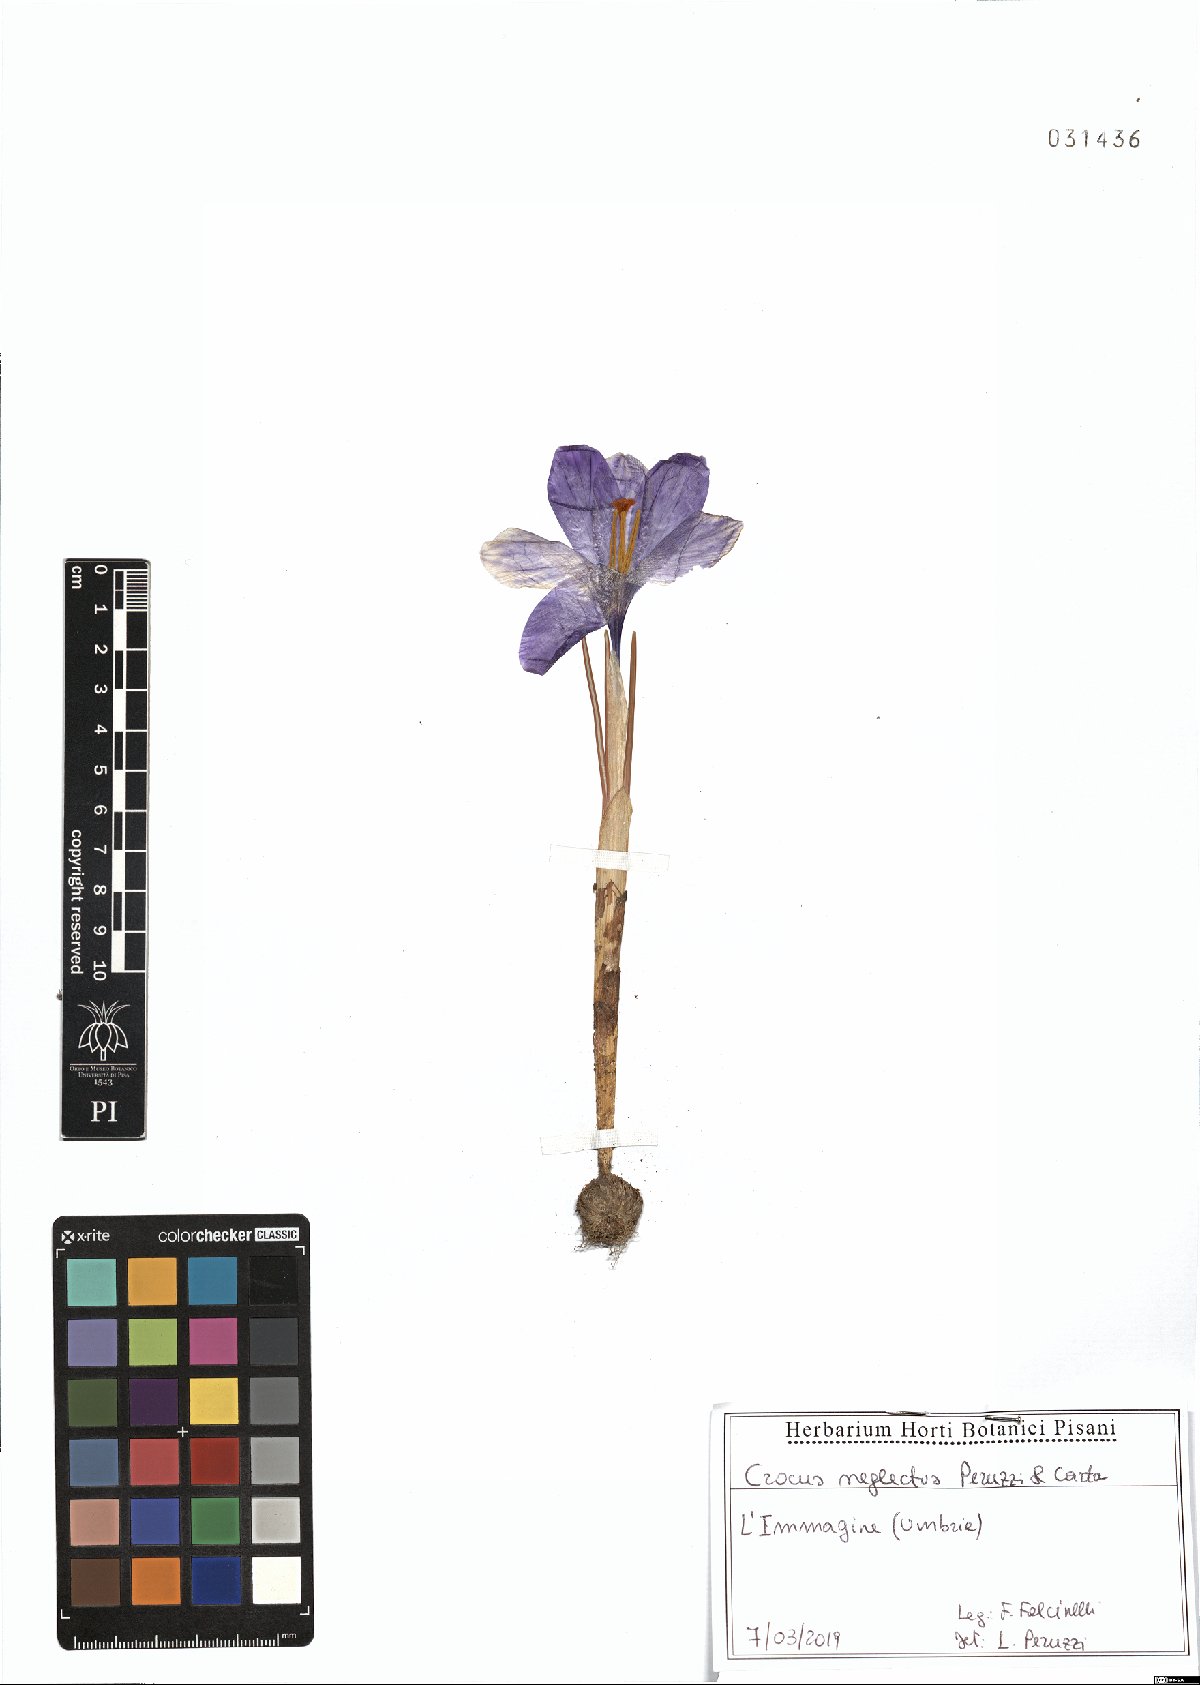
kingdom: Plantae
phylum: Tracheophyta
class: Liliopsida
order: Asparagales
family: Iridaceae
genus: Crocus
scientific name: Crocus neglectus
